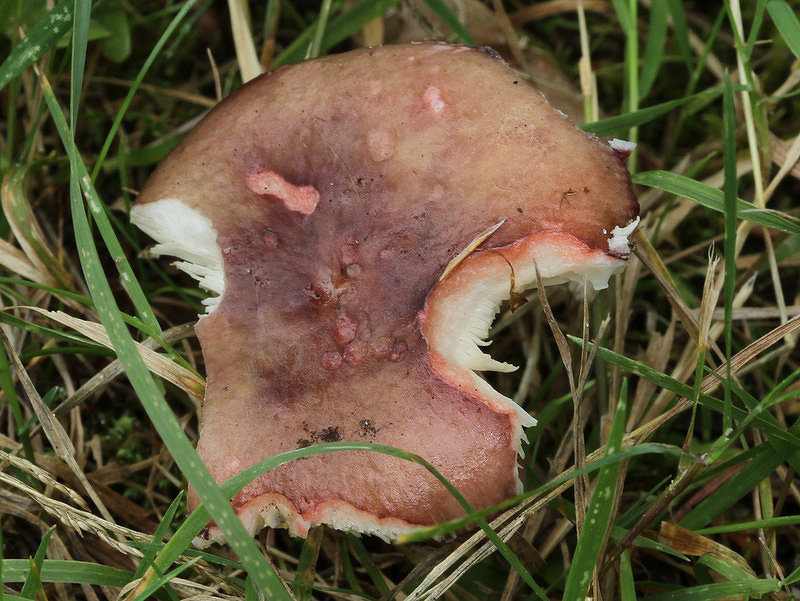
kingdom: Fungi
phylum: Basidiomycota
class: Agaricomycetes
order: Russulales
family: Russulaceae
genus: Russula
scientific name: Russula queletii
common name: Quélets skørhat
